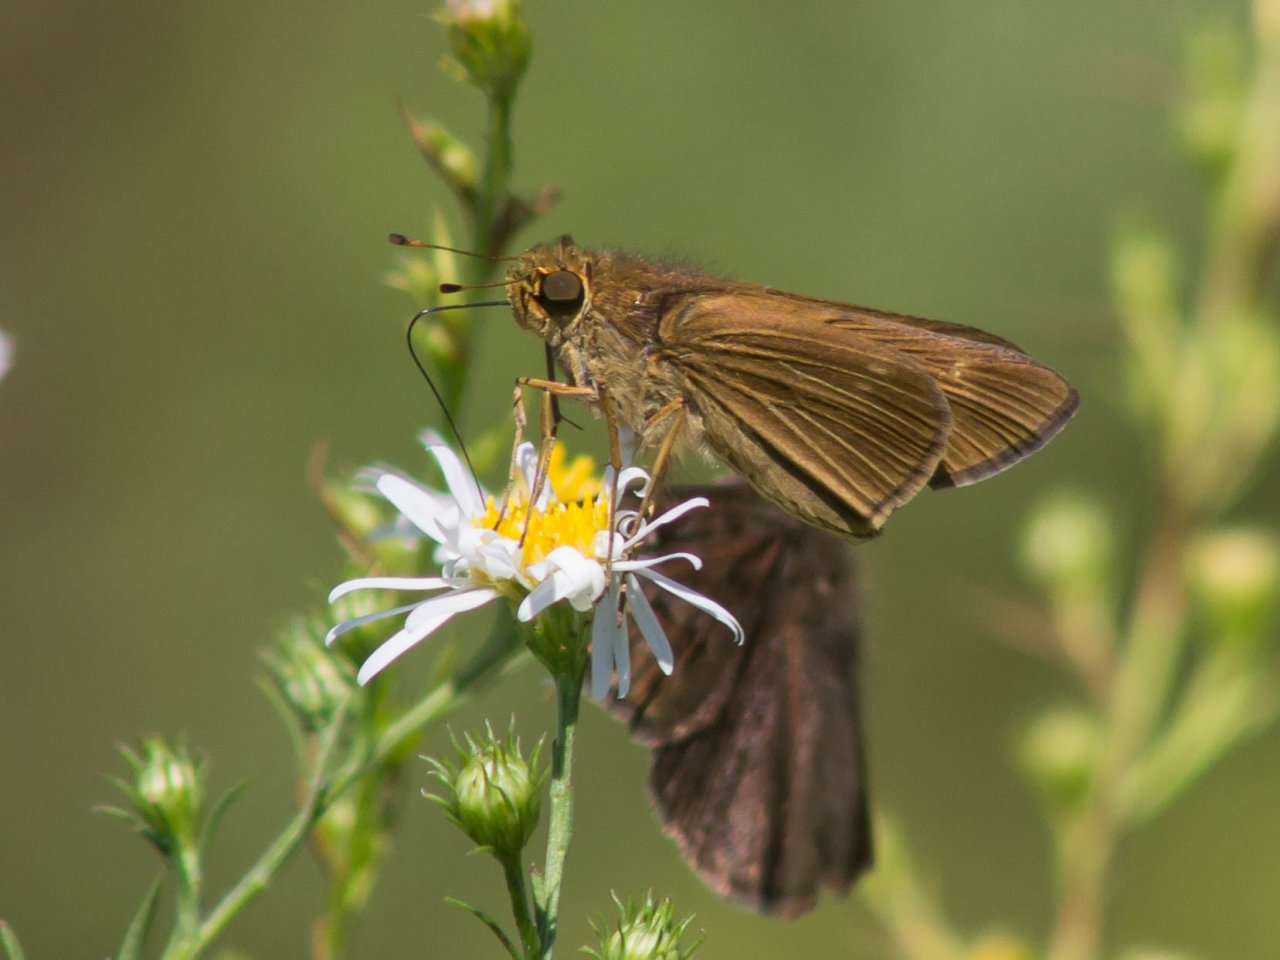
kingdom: Animalia
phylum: Arthropoda
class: Insecta
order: Lepidoptera
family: Hesperiidae
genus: Panoquina
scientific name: Panoquina ocola
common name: Ocola Skipper
